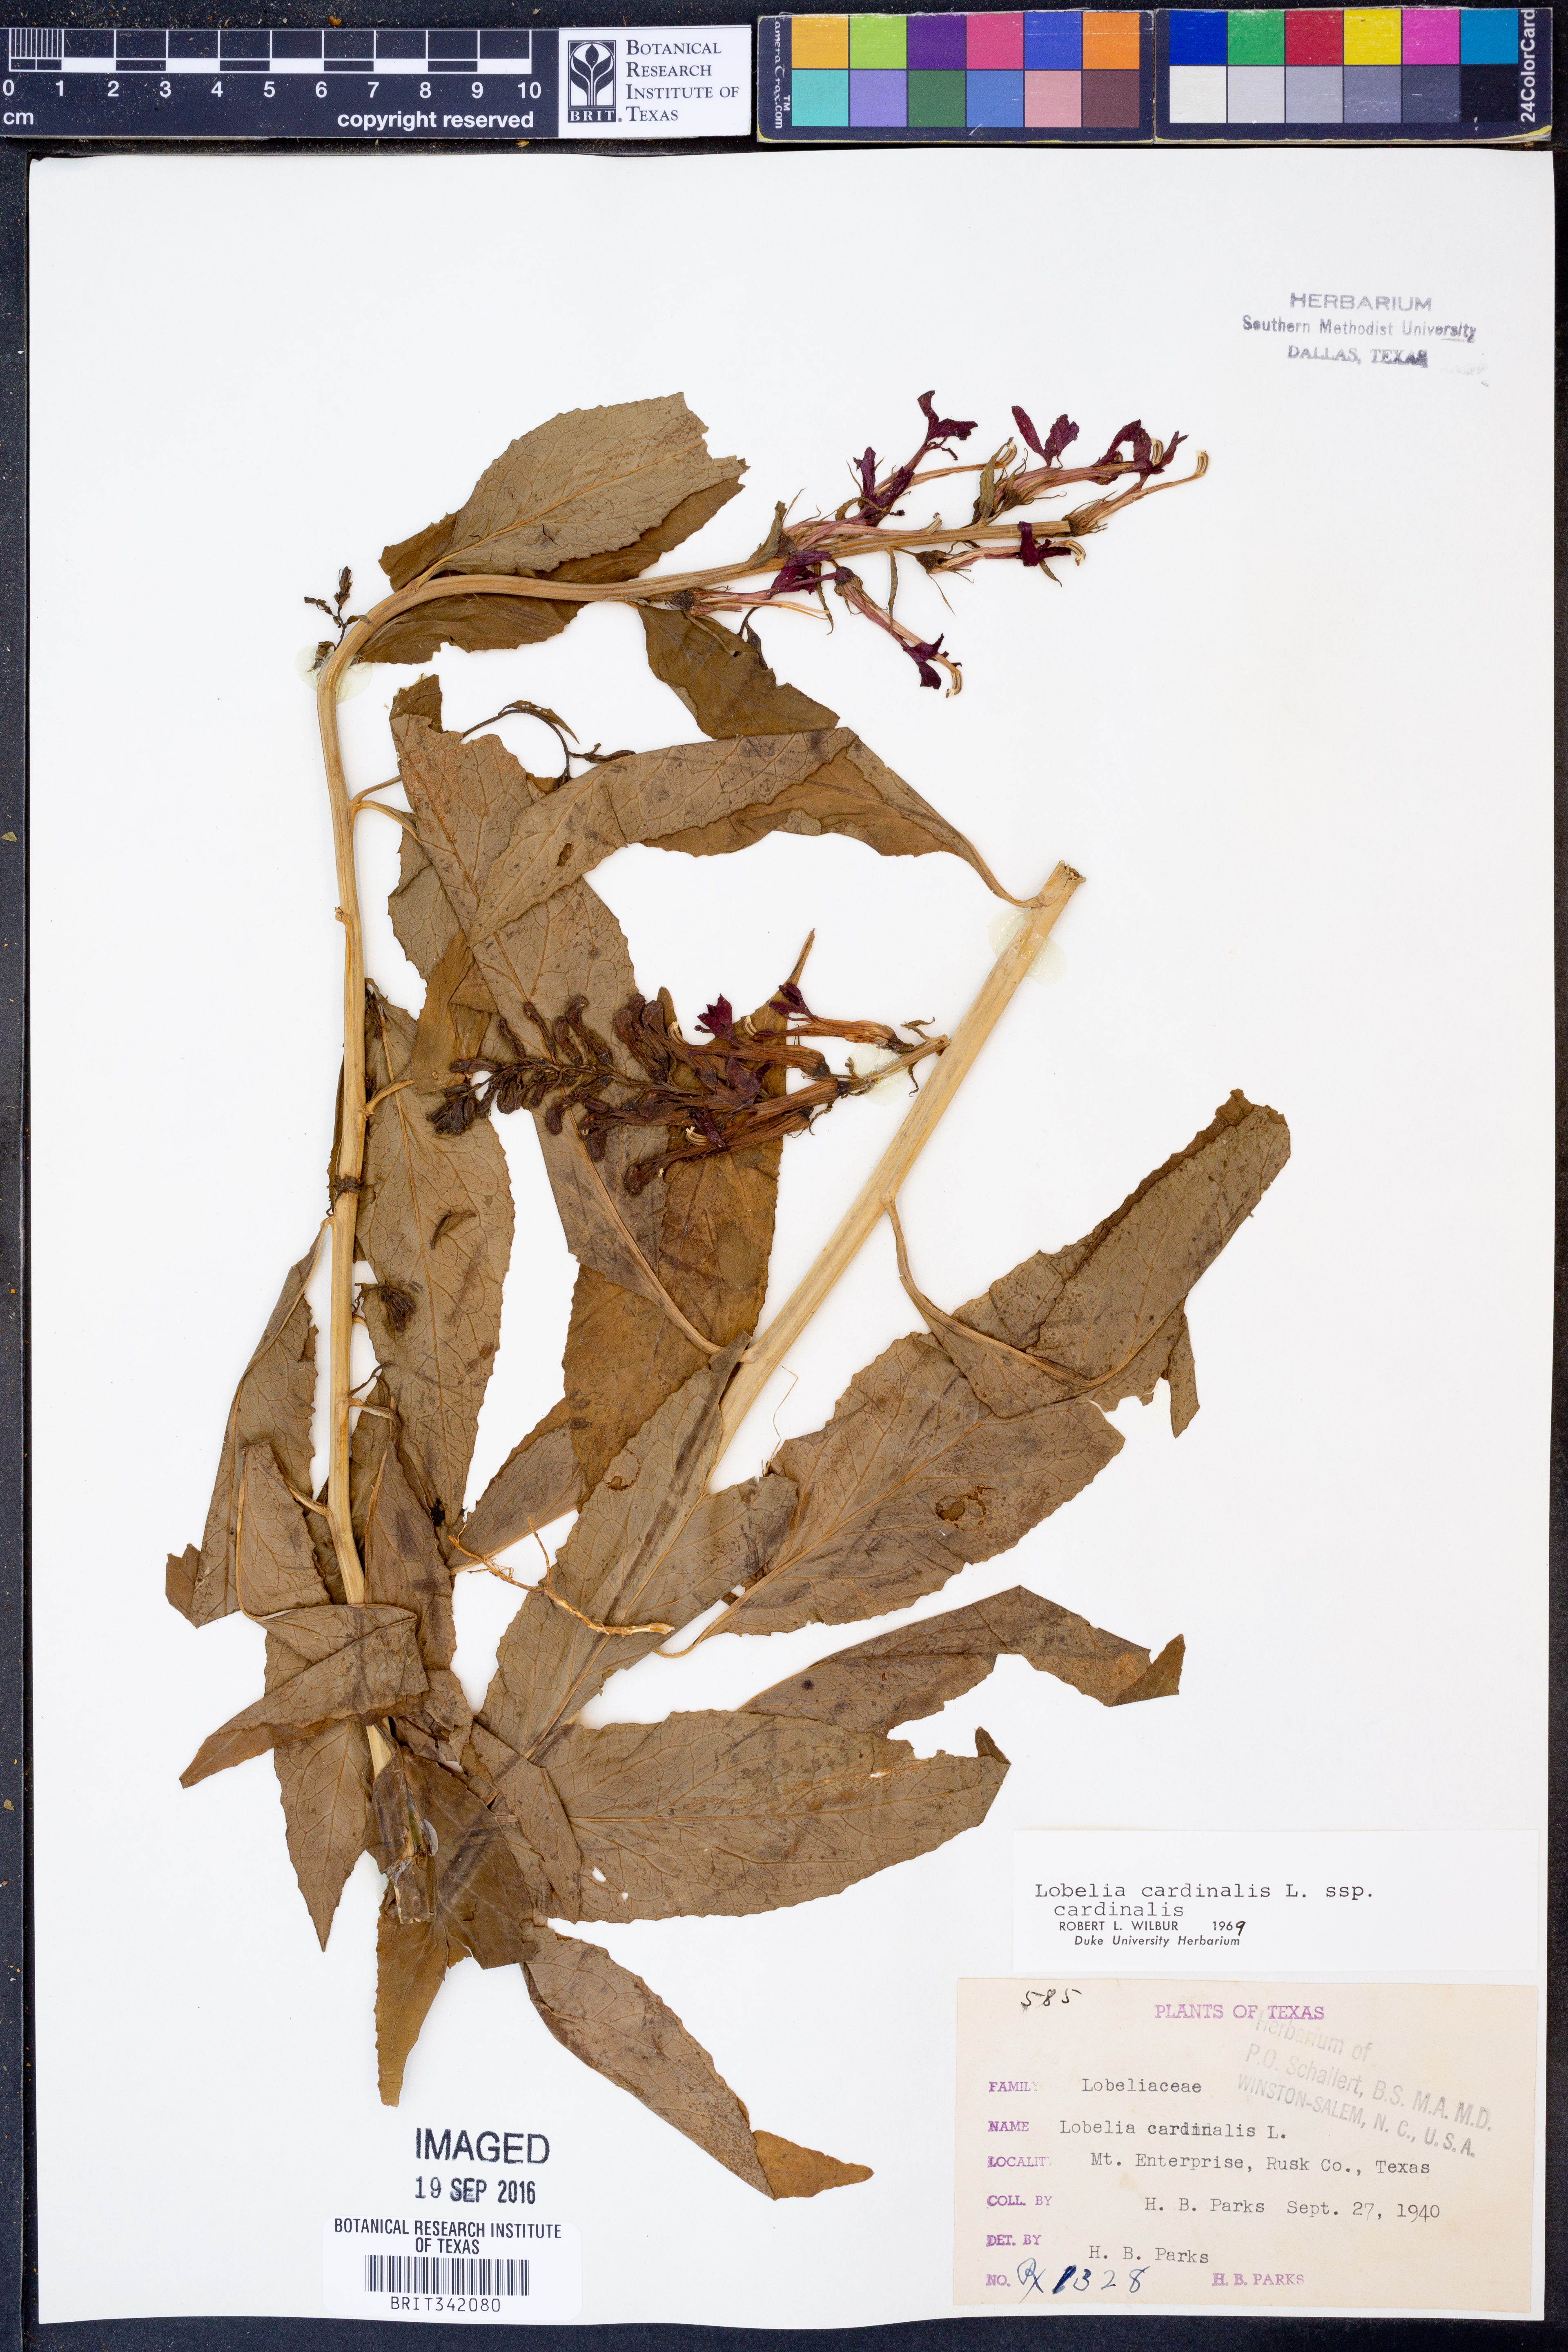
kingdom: Plantae
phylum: Tracheophyta
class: Magnoliopsida
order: Asterales
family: Campanulaceae
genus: Lobelia
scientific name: Lobelia cardinalis
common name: Cardinal flower
